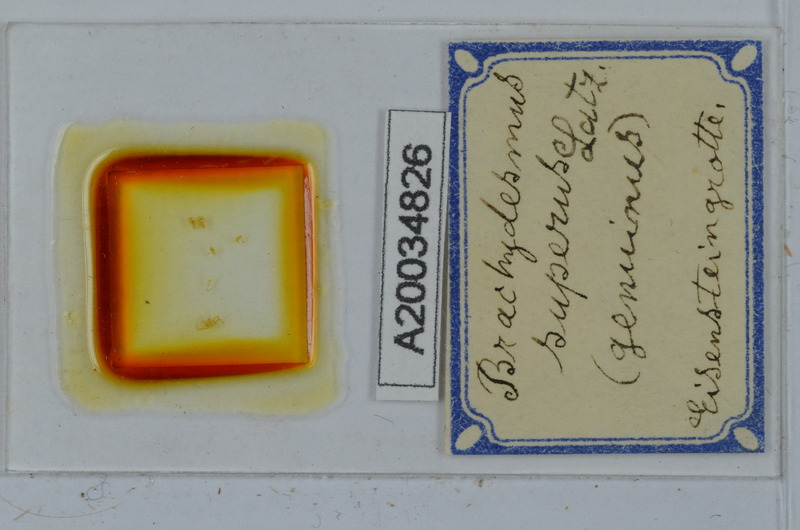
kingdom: Animalia
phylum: Arthropoda
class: Diplopoda
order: Polydesmida
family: Polydesmidae
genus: Brachydesmus
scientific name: Brachydesmus superus
